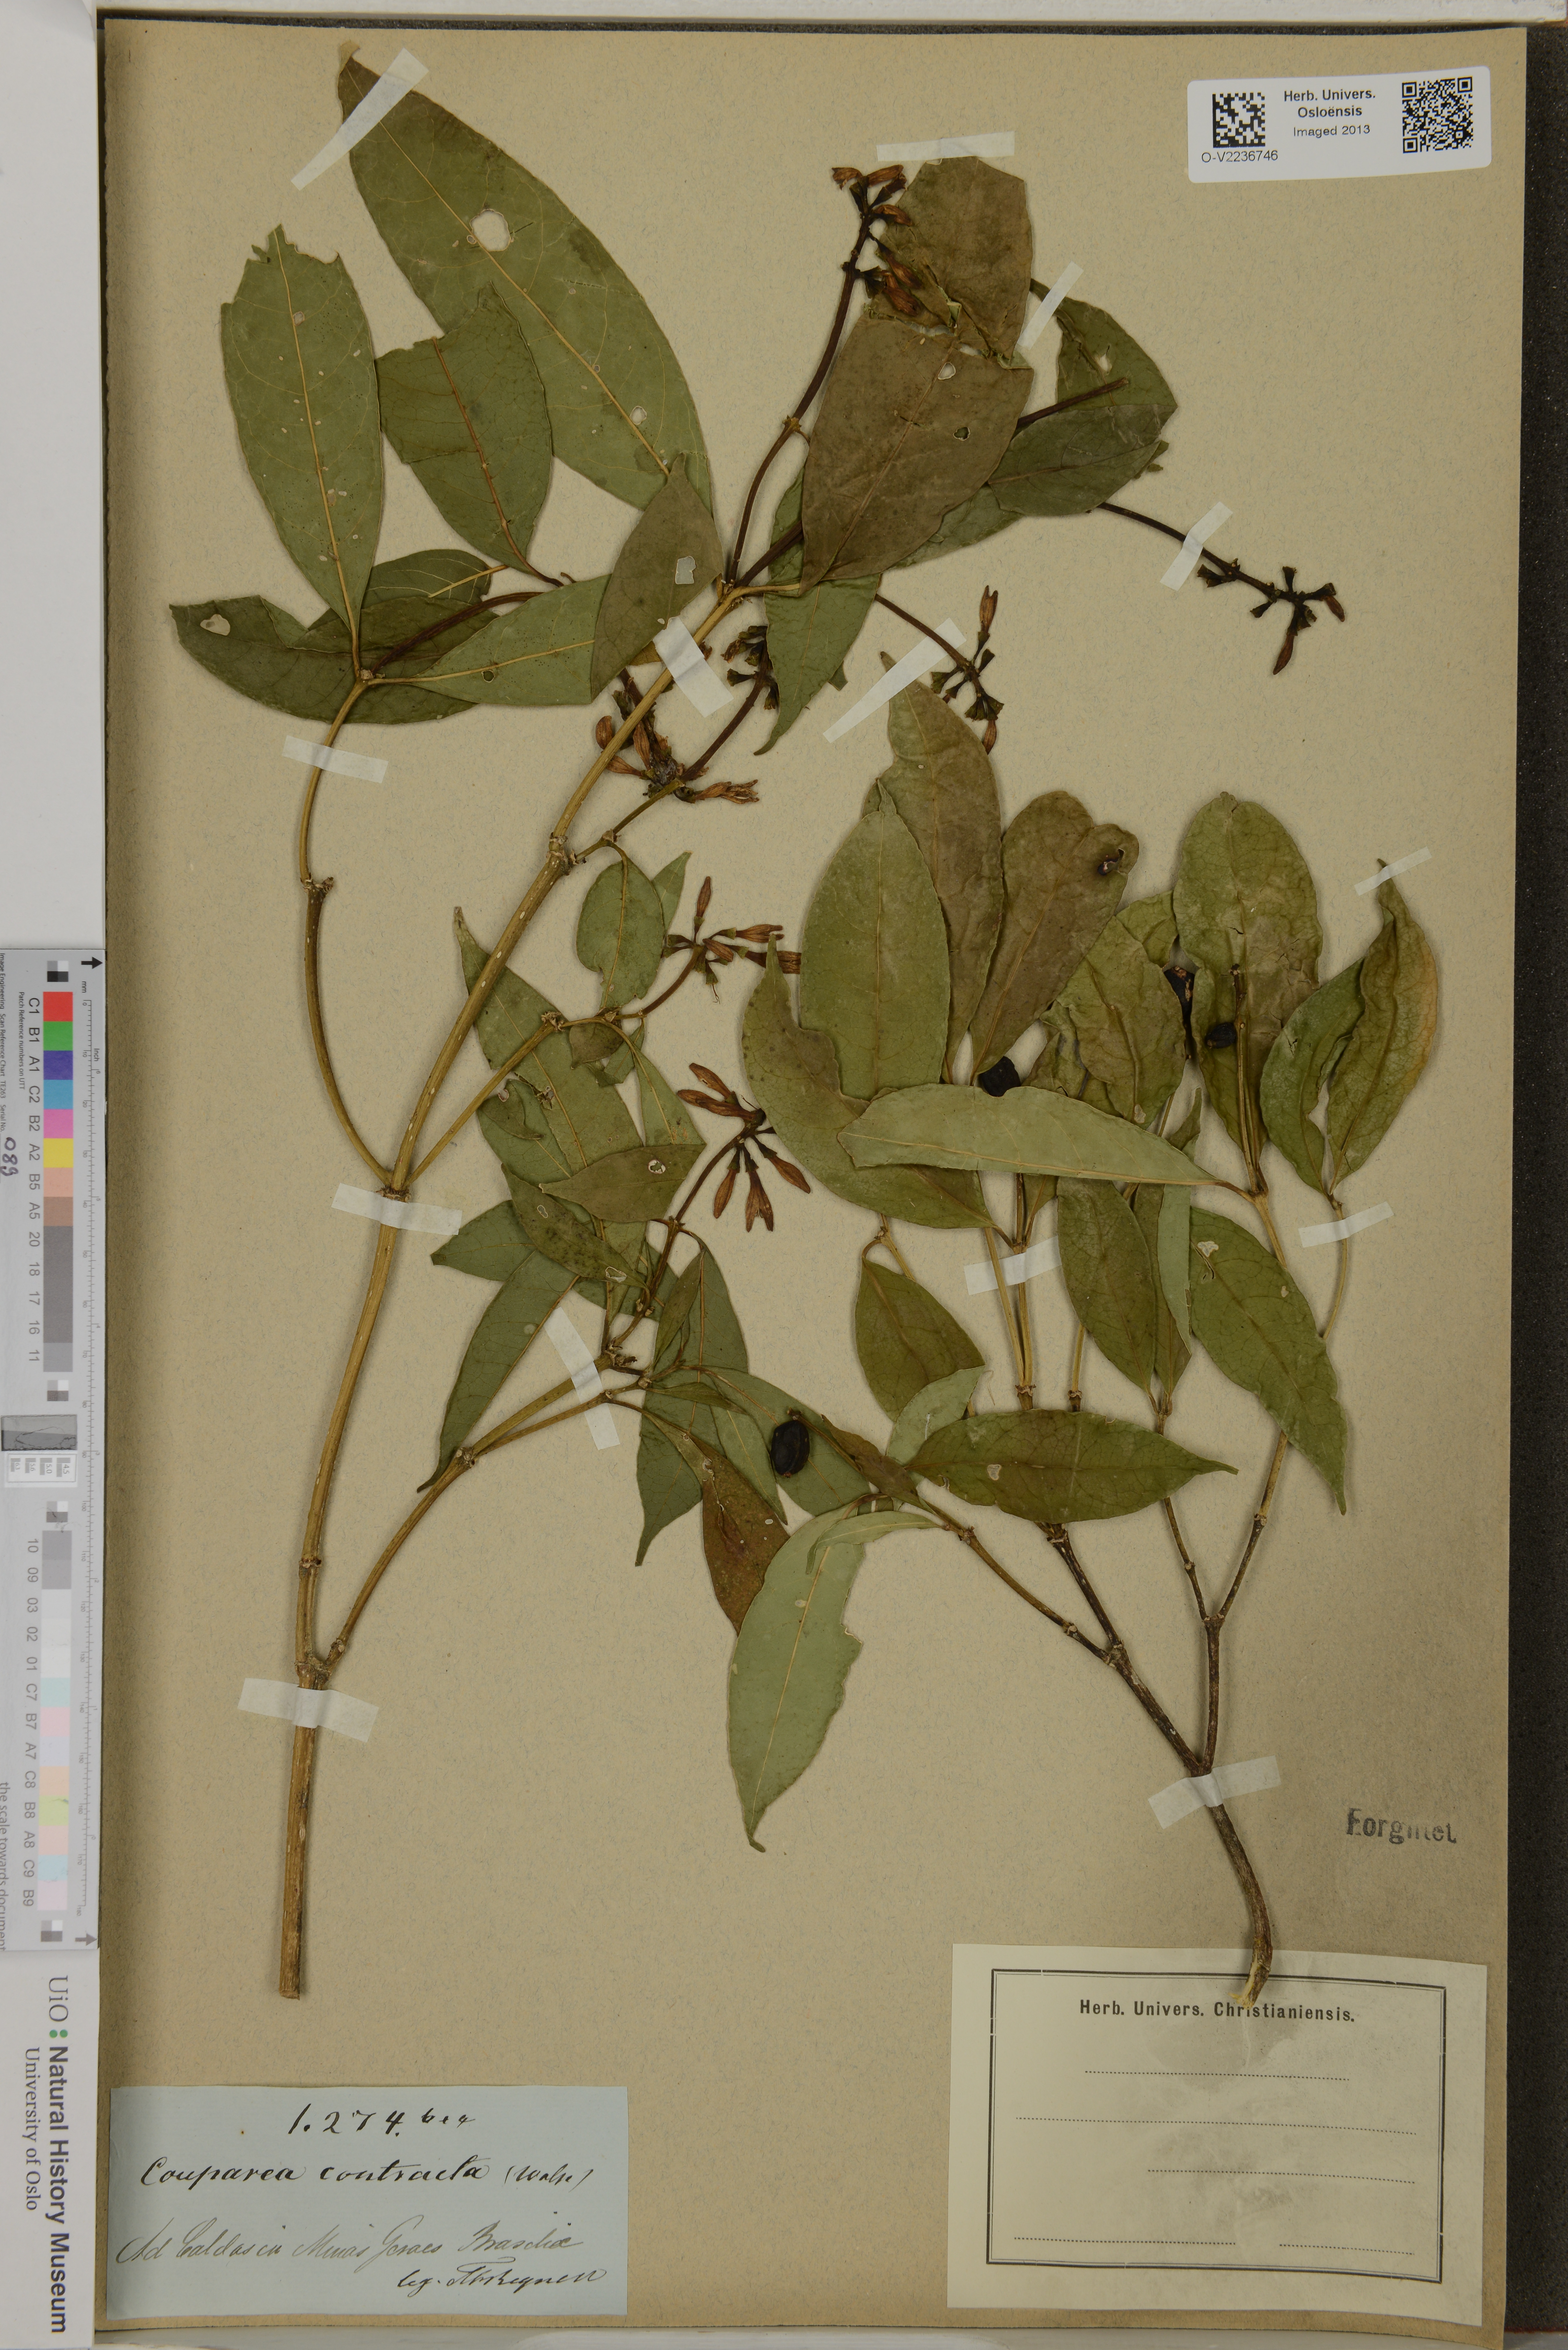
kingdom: Plantae
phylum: Tracheophyta
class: Magnoliopsida
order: Gentianales
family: Rubiaceae
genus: Coussarea
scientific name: Coussarea contracta
